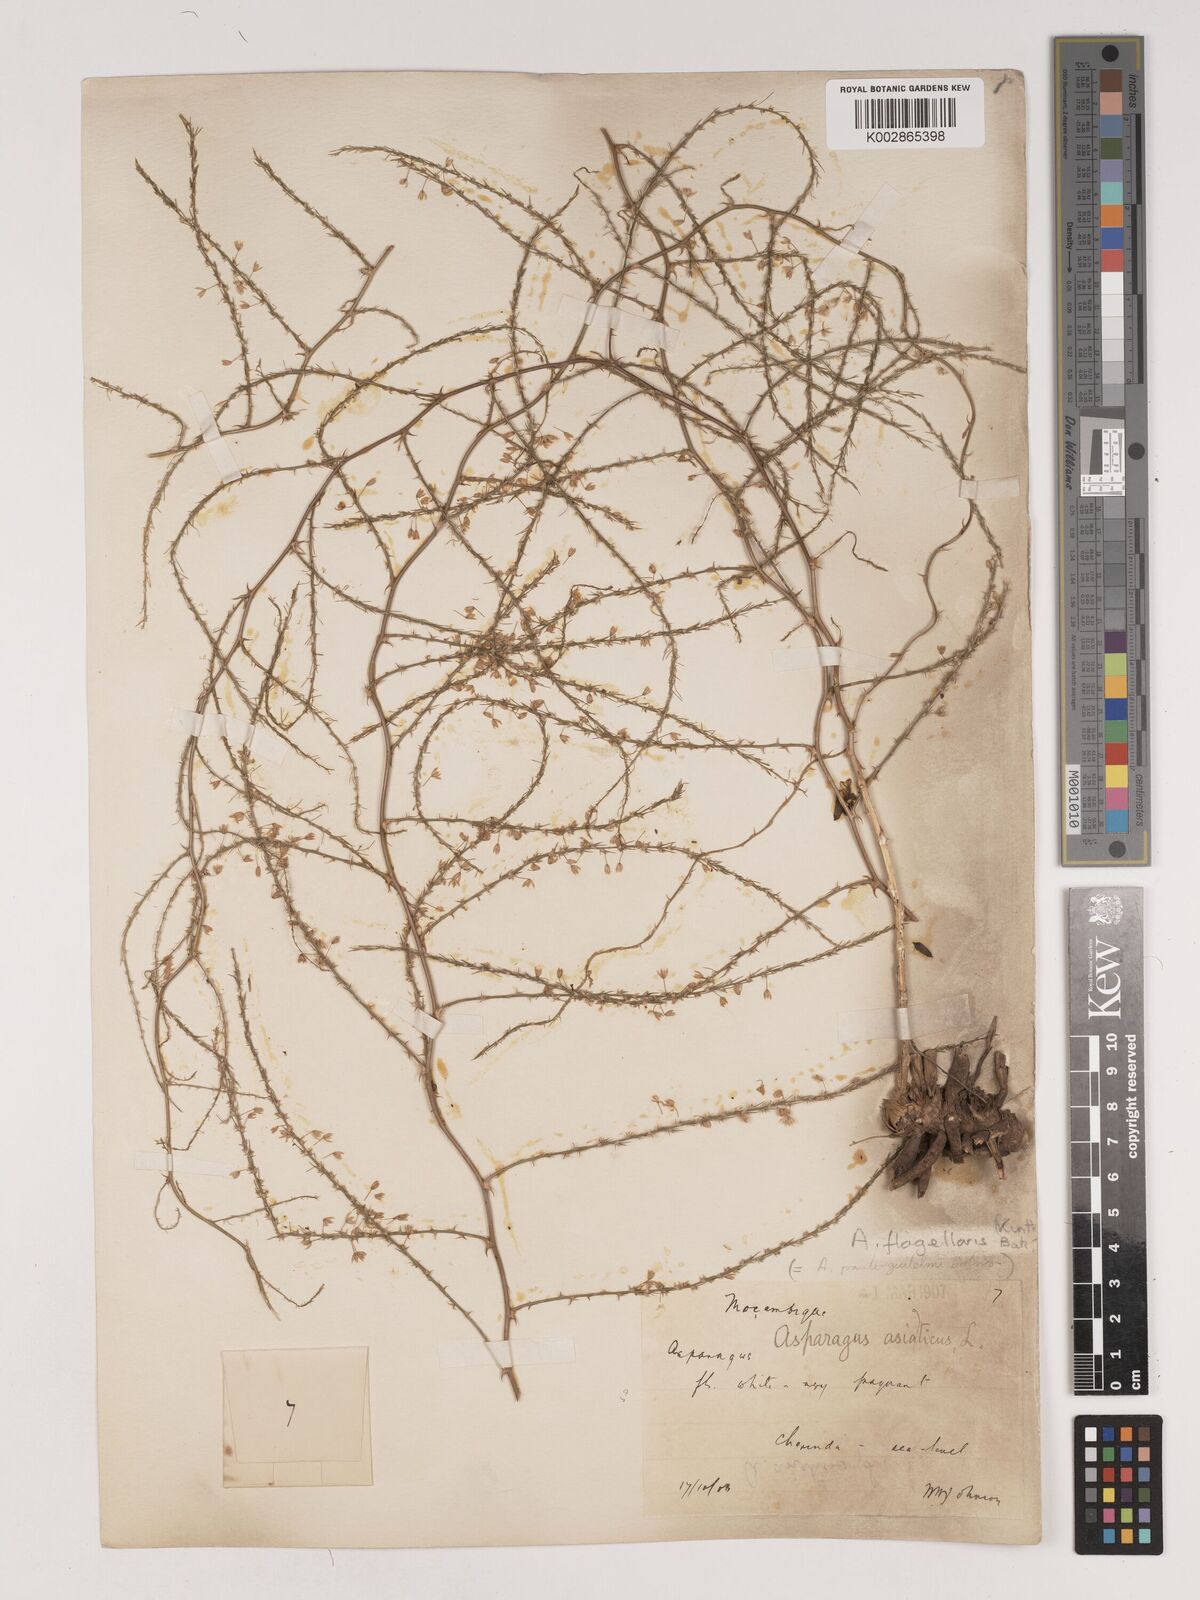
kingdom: Plantae
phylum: Tracheophyta
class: Liliopsida
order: Asparagales
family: Asparagaceae
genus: Asparagus
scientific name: Asparagus flagellaris
